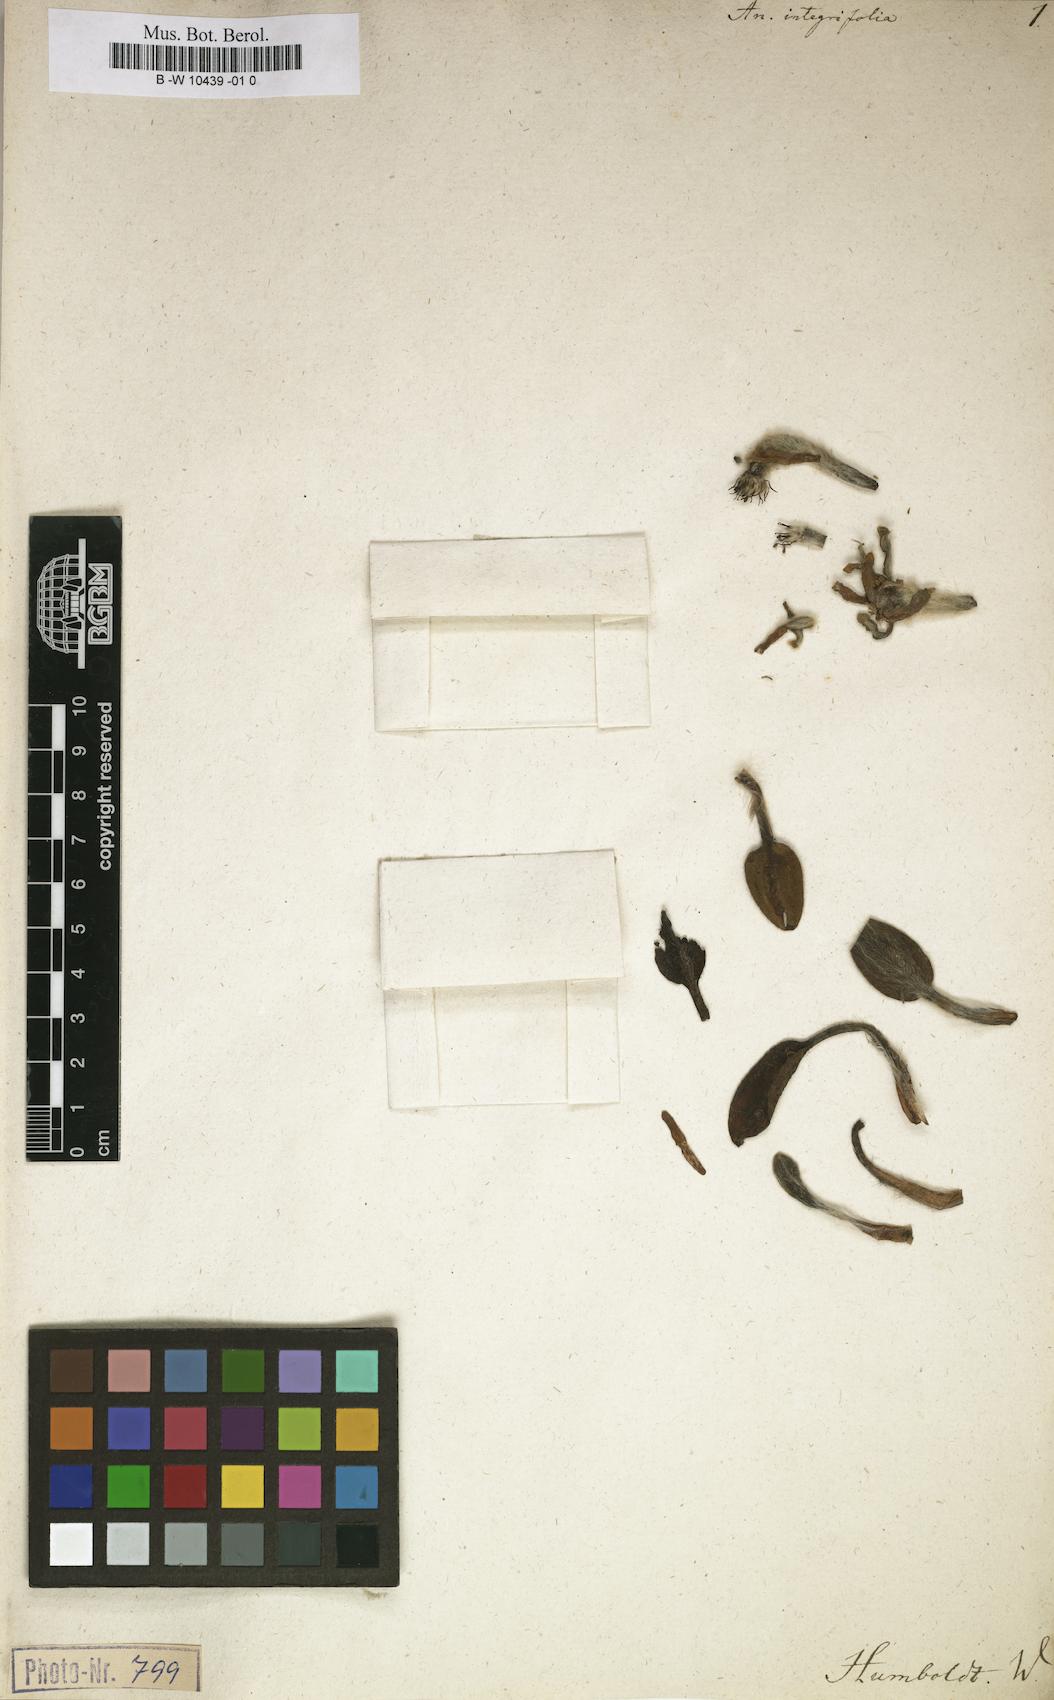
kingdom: Plantae
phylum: Tracheophyta
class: Magnoliopsida
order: Ranunculales
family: Ranunculaceae
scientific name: Ranunculaceae
